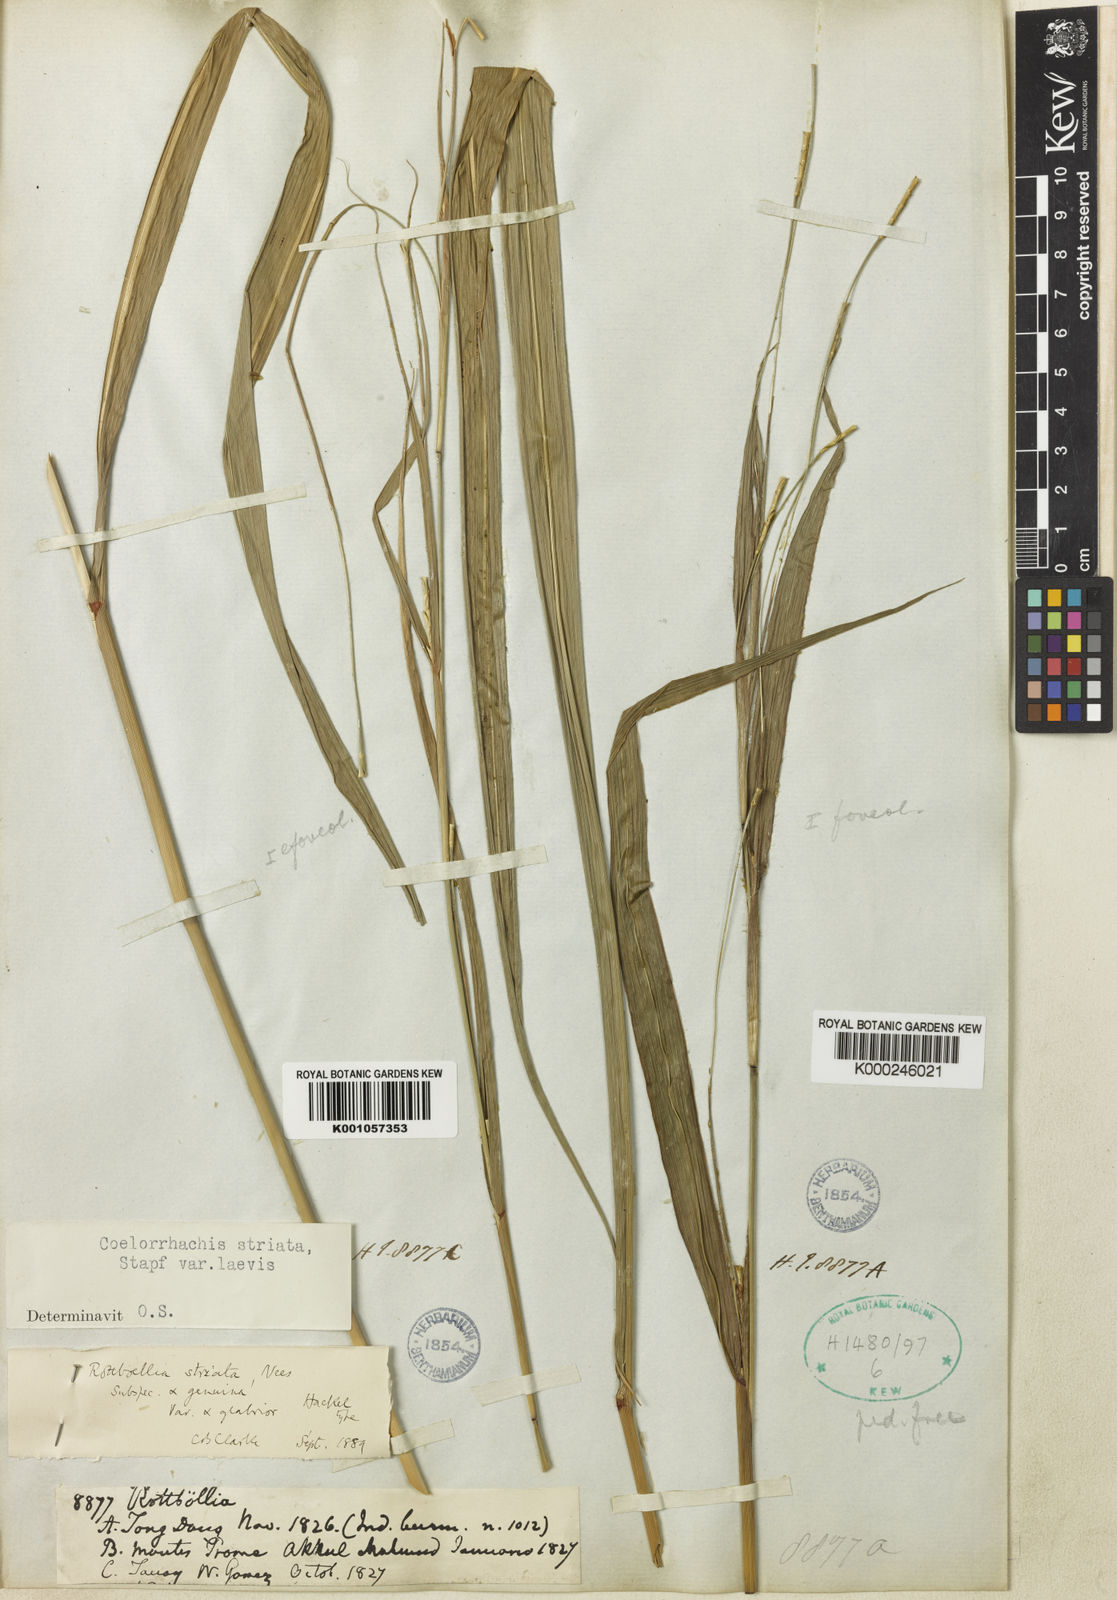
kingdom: Plantae
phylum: Tracheophyta
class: Liliopsida
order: Poales
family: Poaceae
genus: Rottboellia
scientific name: Rottboellia striata
